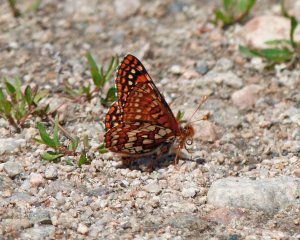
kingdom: Animalia
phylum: Arthropoda
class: Insecta
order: Lepidoptera
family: Nymphalidae
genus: Occidryas
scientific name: Occidryas chalcedona
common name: Chalcedon Checkerspot
